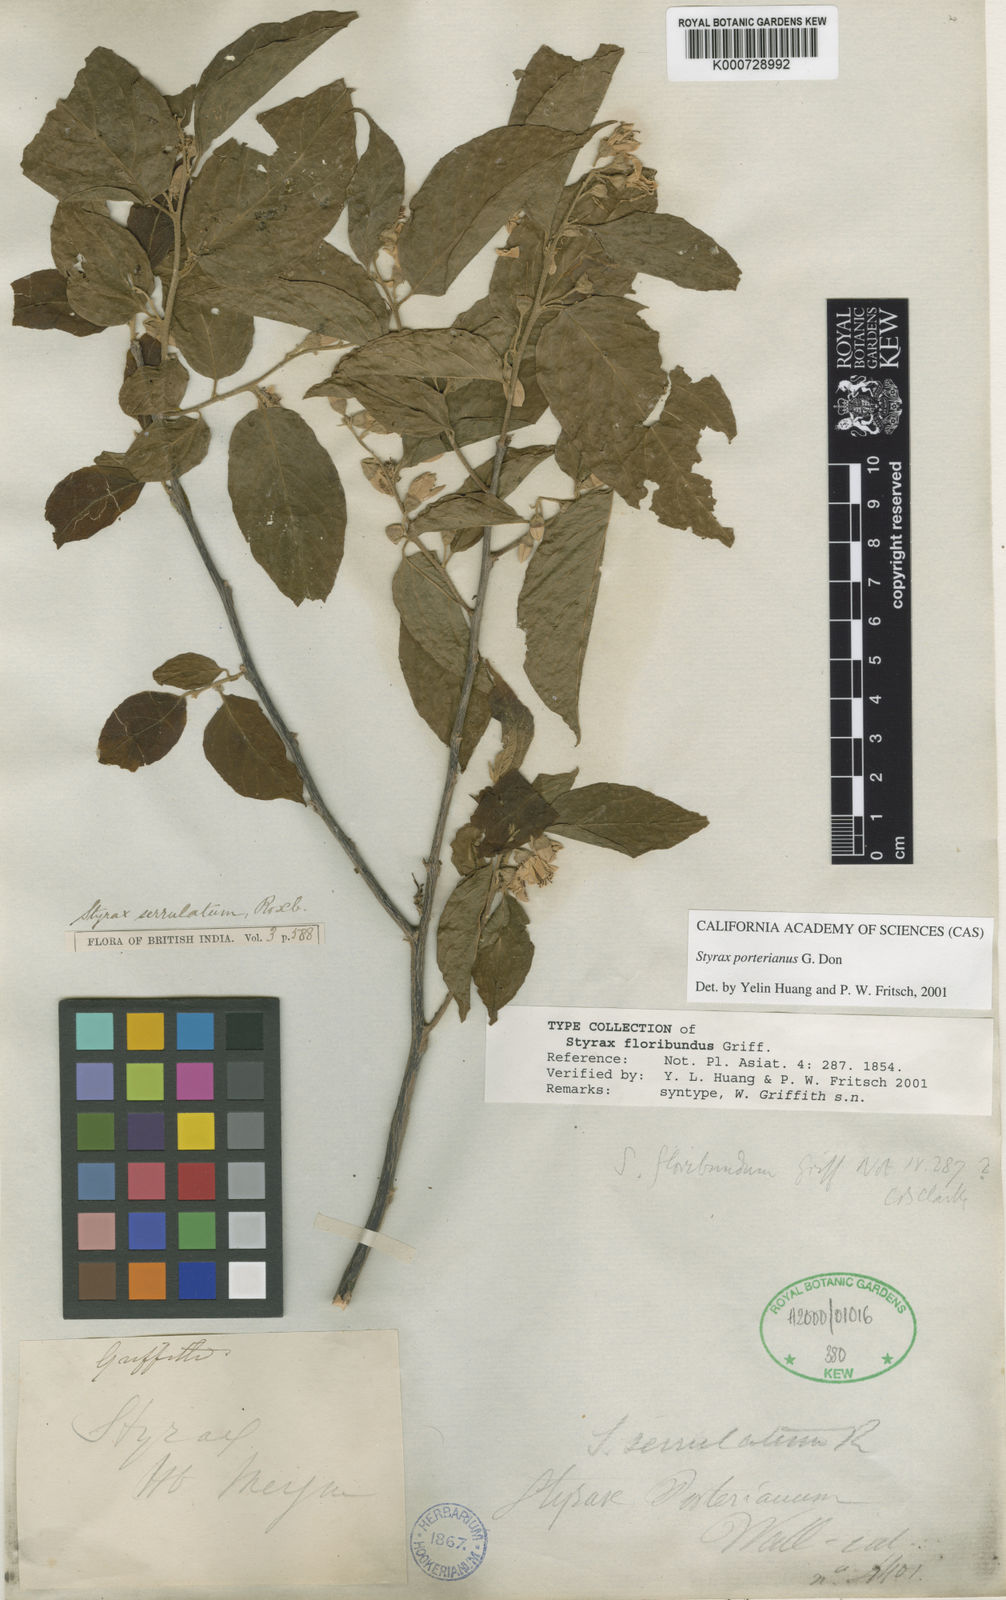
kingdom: Plantae
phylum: Tracheophyta
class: Magnoliopsida
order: Ericales
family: Styracaceae
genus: Styrax
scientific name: Styrax
